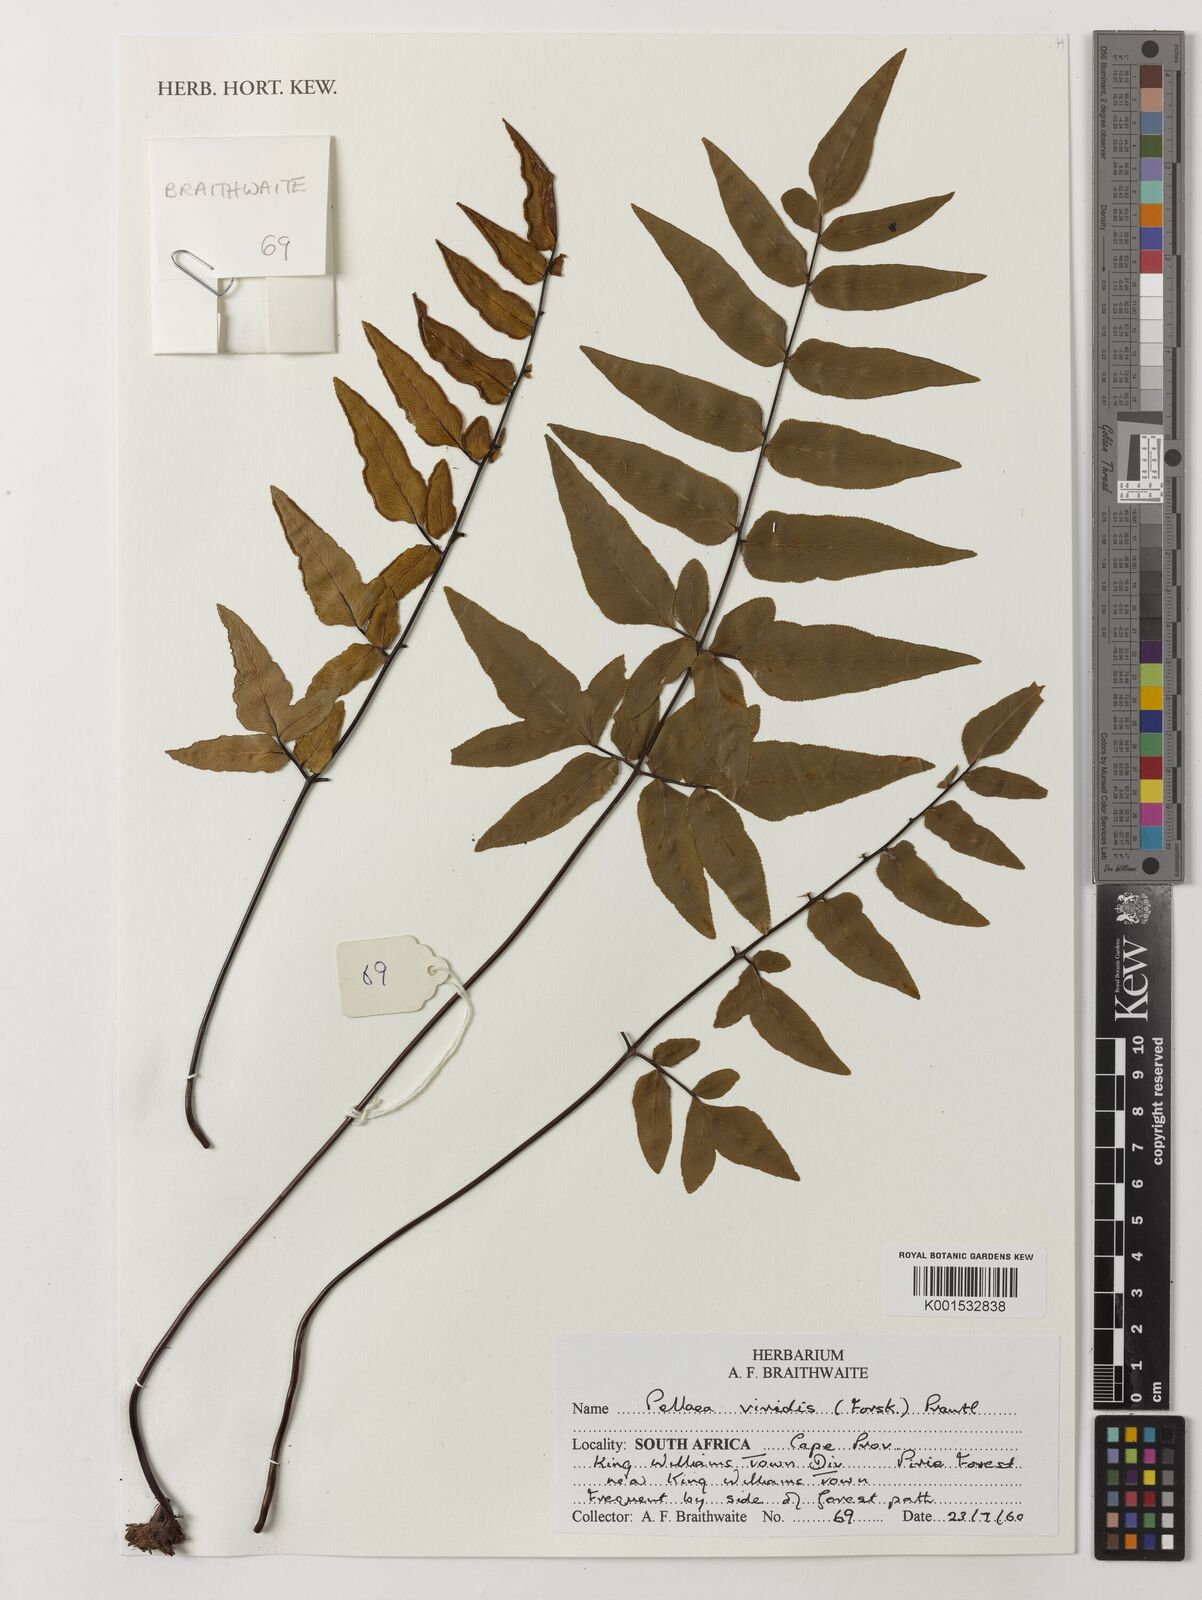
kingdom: Plantae
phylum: Tracheophyta
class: Polypodiopsida
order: Polypodiales
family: Pteridaceae
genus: Cheilanthes
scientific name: Cheilanthes viridis
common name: Green cliffbrake
